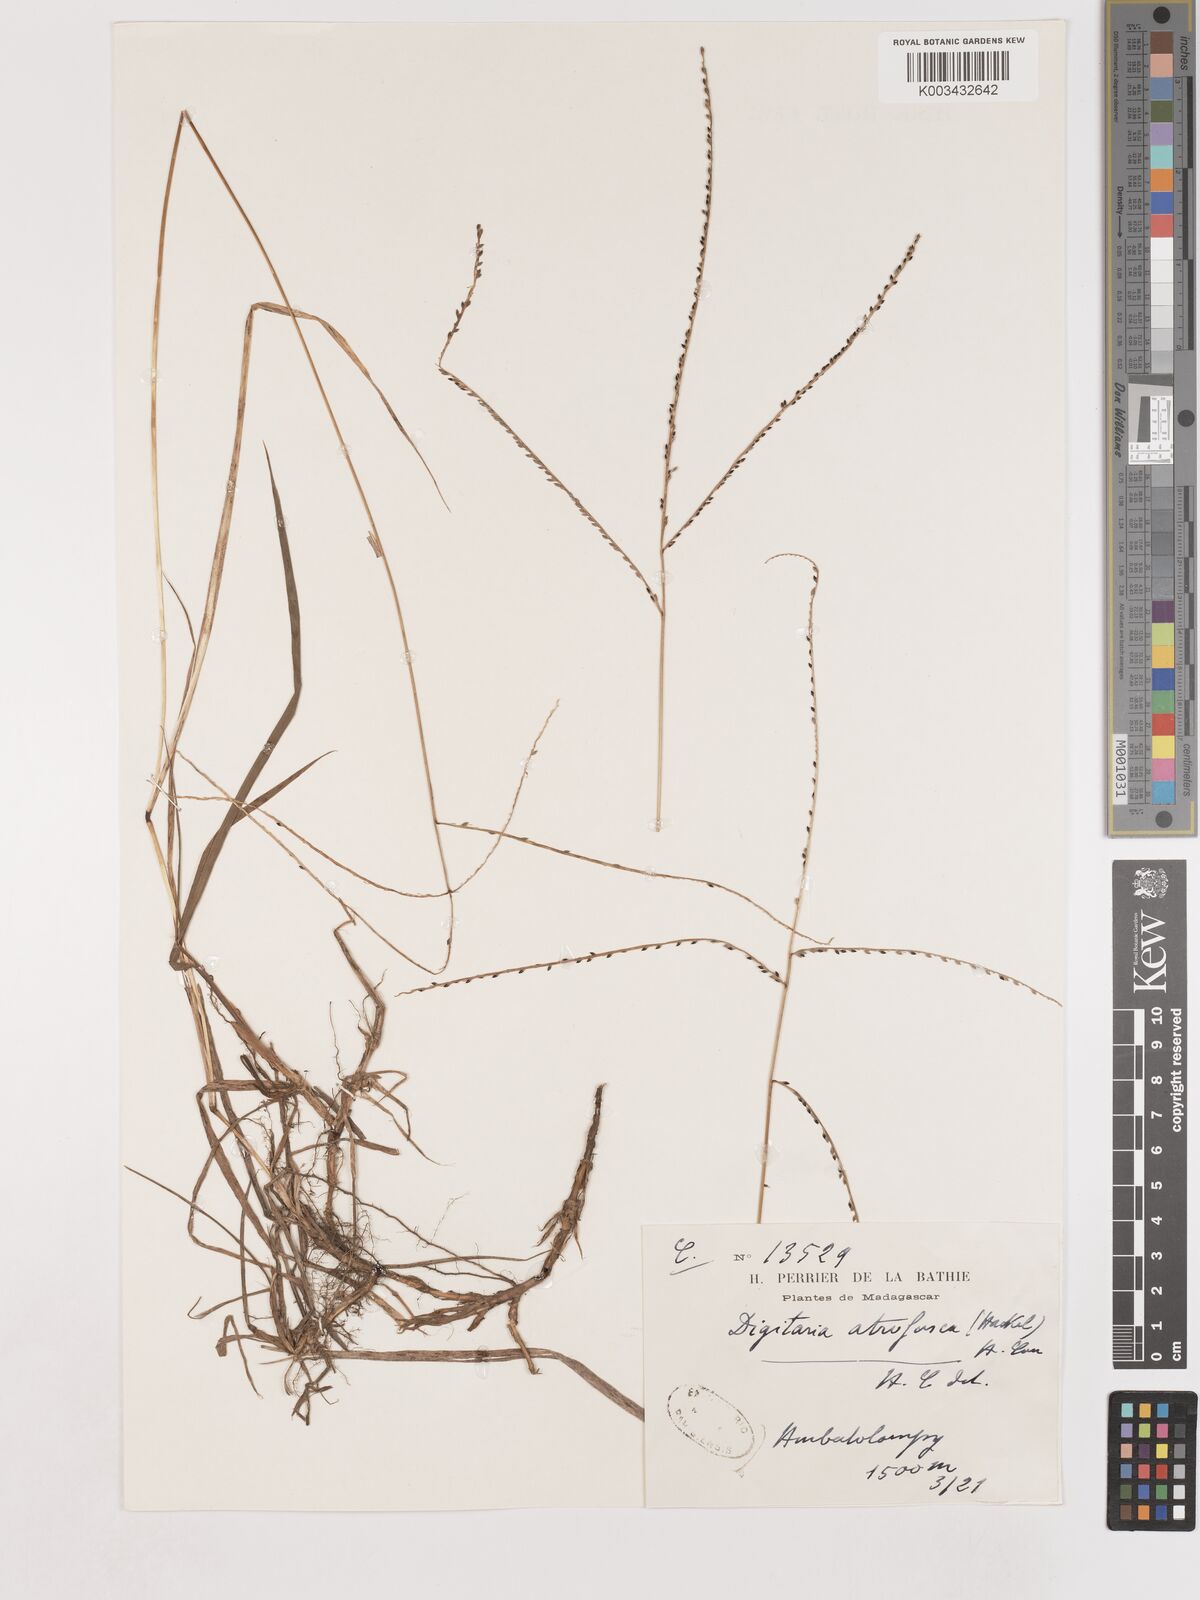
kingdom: Plantae
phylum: Tracheophyta
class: Liliopsida
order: Poales
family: Poaceae
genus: Digitaria
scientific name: Digitaria atrofusca
